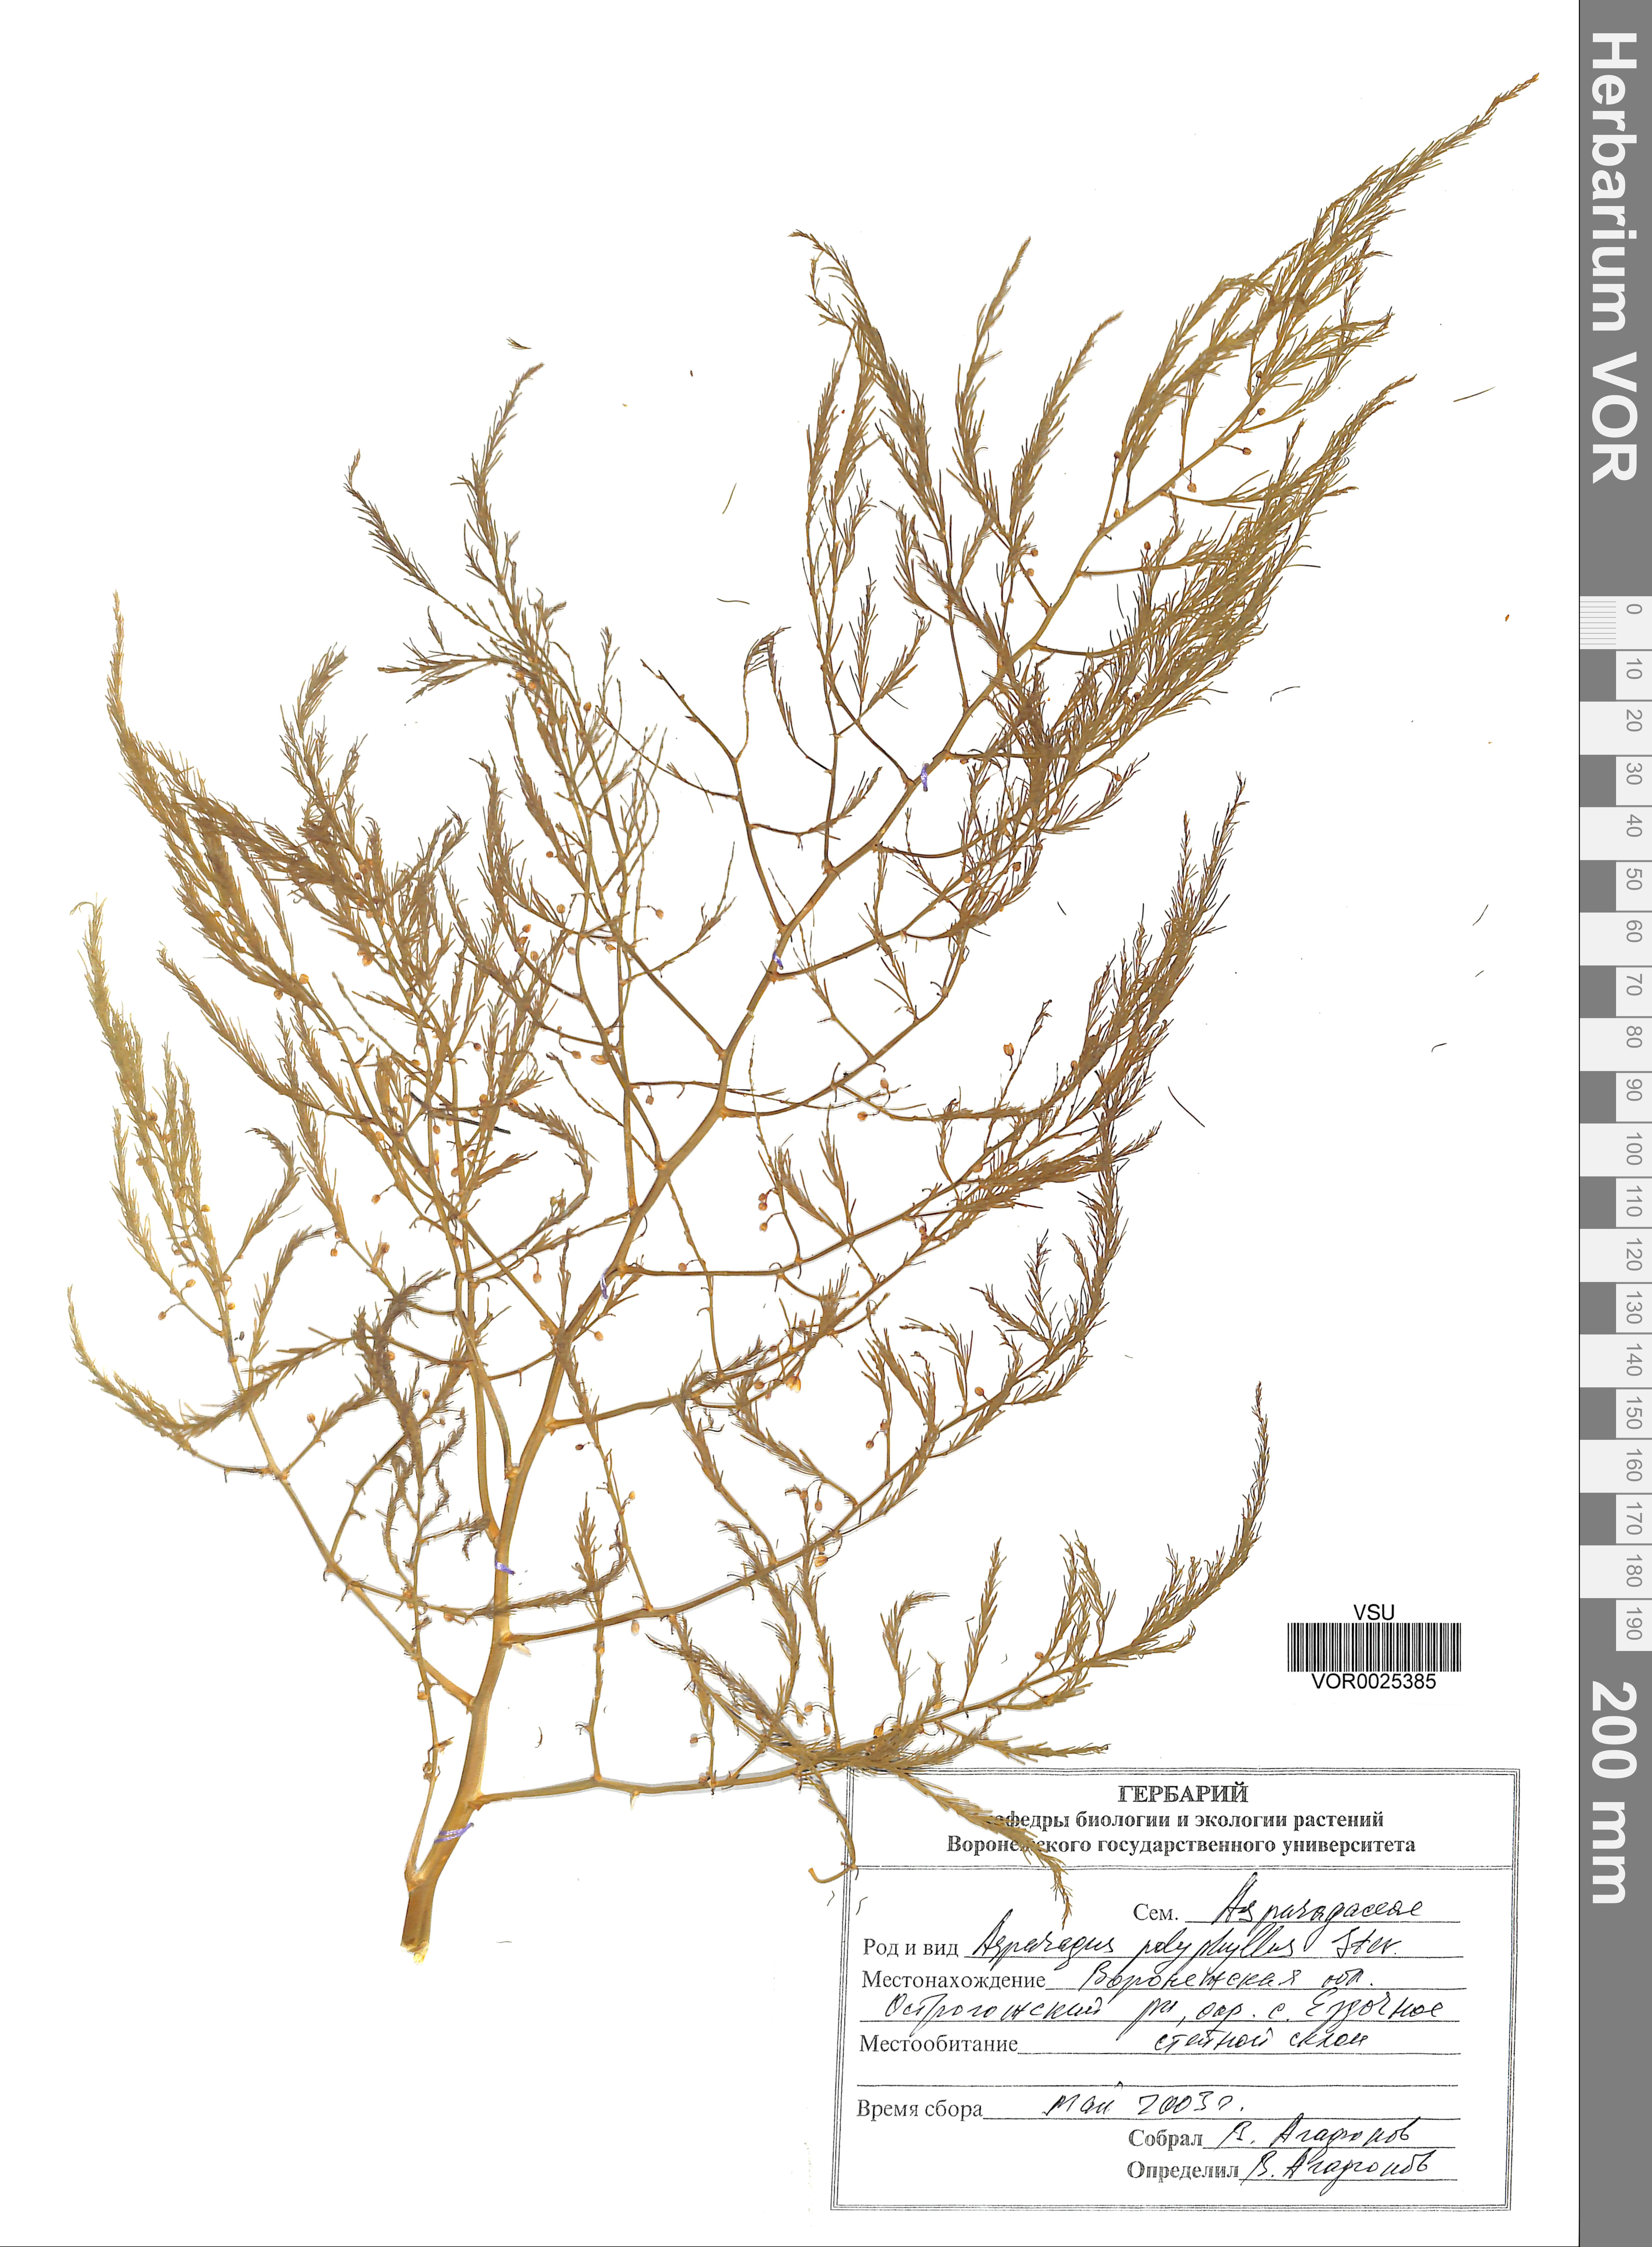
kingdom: Plantae
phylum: Tracheophyta
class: Liliopsida
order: Asparagales
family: Asparagaceae
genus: Asparagus
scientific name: Asparagus officinalis
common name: Garden asparagus
